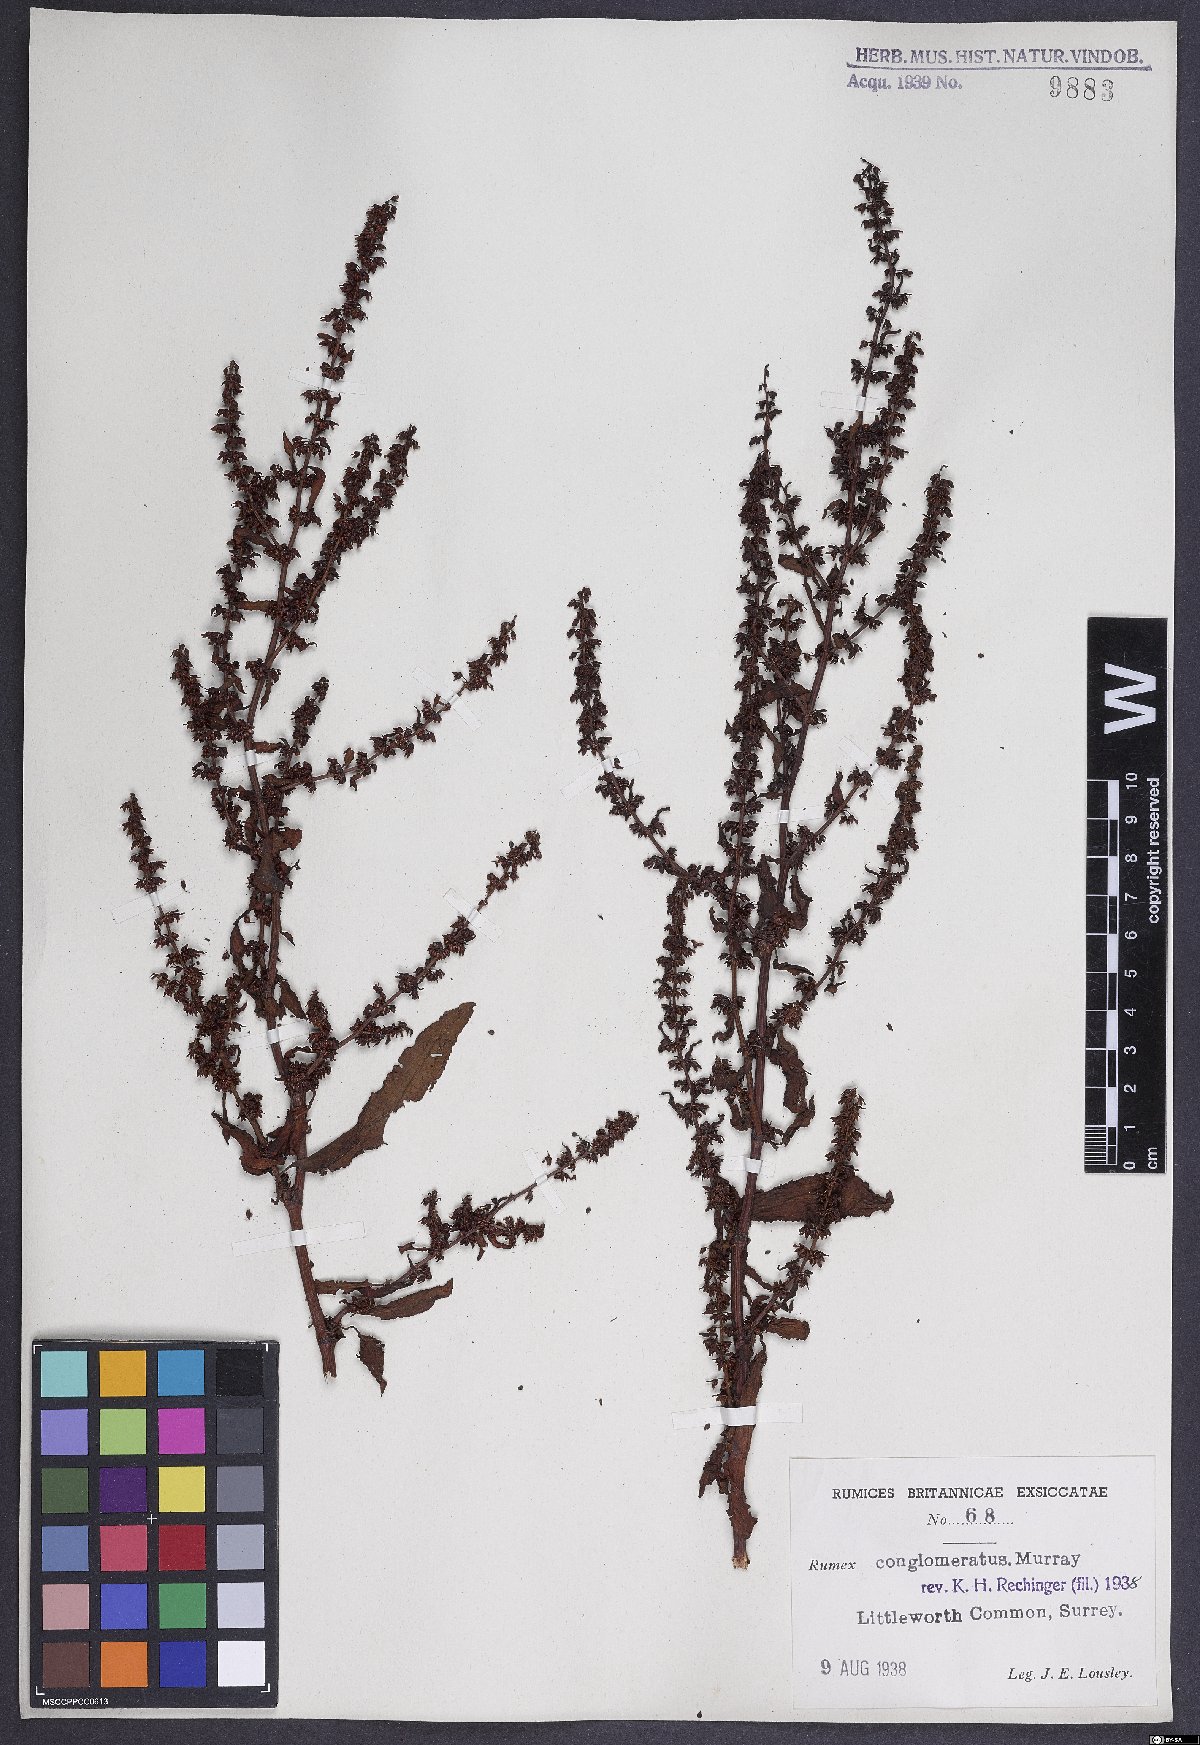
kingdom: Plantae
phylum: Tracheophyta
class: Magnoliopsida
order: Caryophyllales
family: Polygonaceae
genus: Rumex
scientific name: Rumex conglomeratus
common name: Clustered dock
